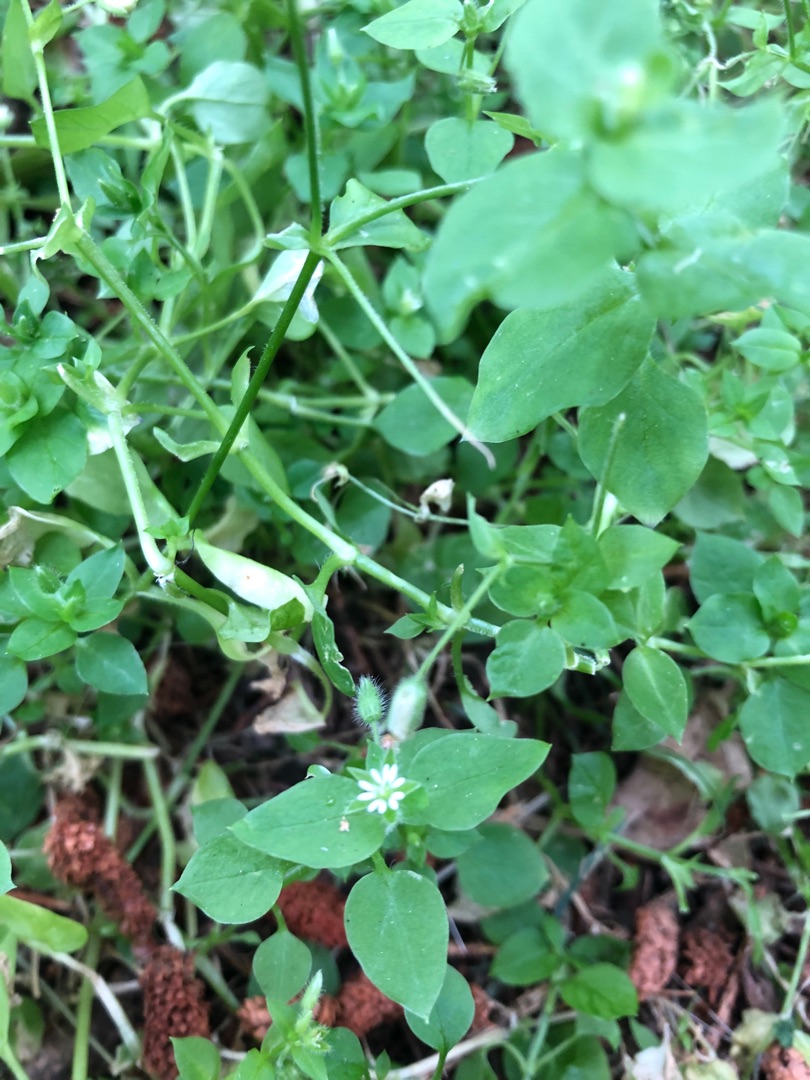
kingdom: Plantae
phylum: Tracheophyta
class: Magnoliopsida
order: Caryophyllales
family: Caryophyllaceae
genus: Stellaria
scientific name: Stellaria media
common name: Almindelig fuglegræs
